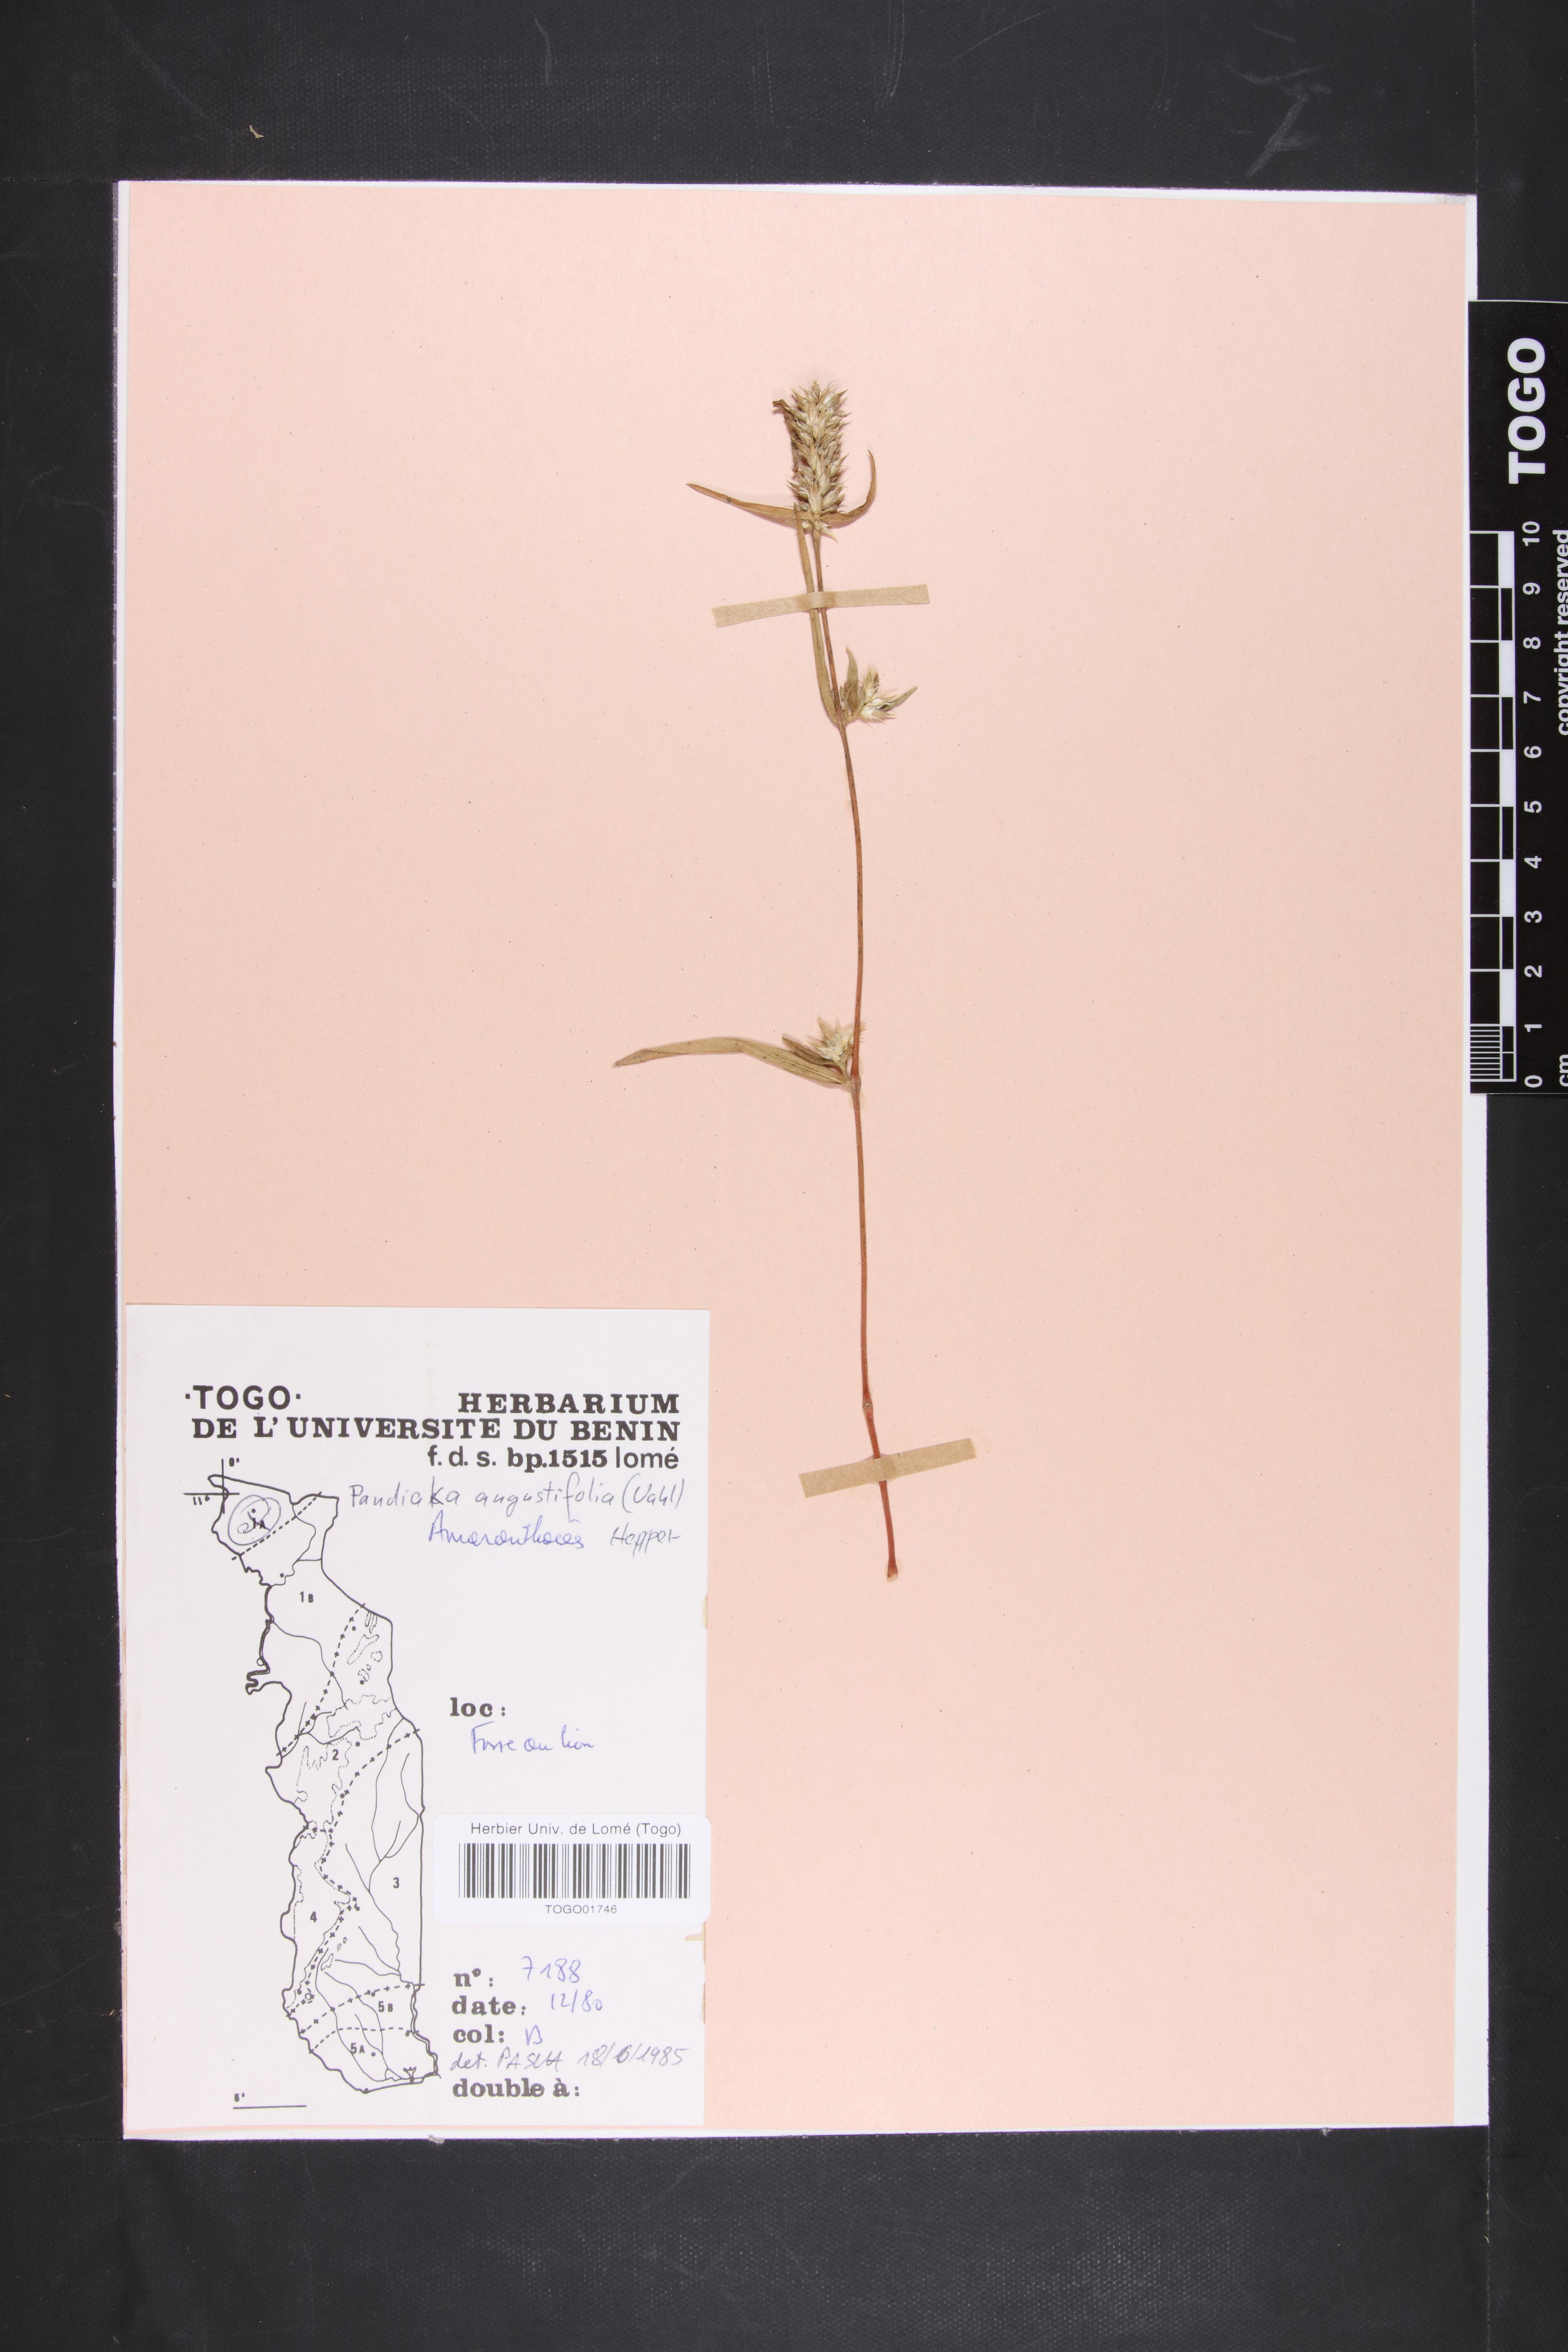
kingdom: Plantae
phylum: Tracheophyta
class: Magnoliopsida
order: Caryophyllales
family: Amaranthaceae
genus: Pandiaka
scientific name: Pandiaka angustifolia
